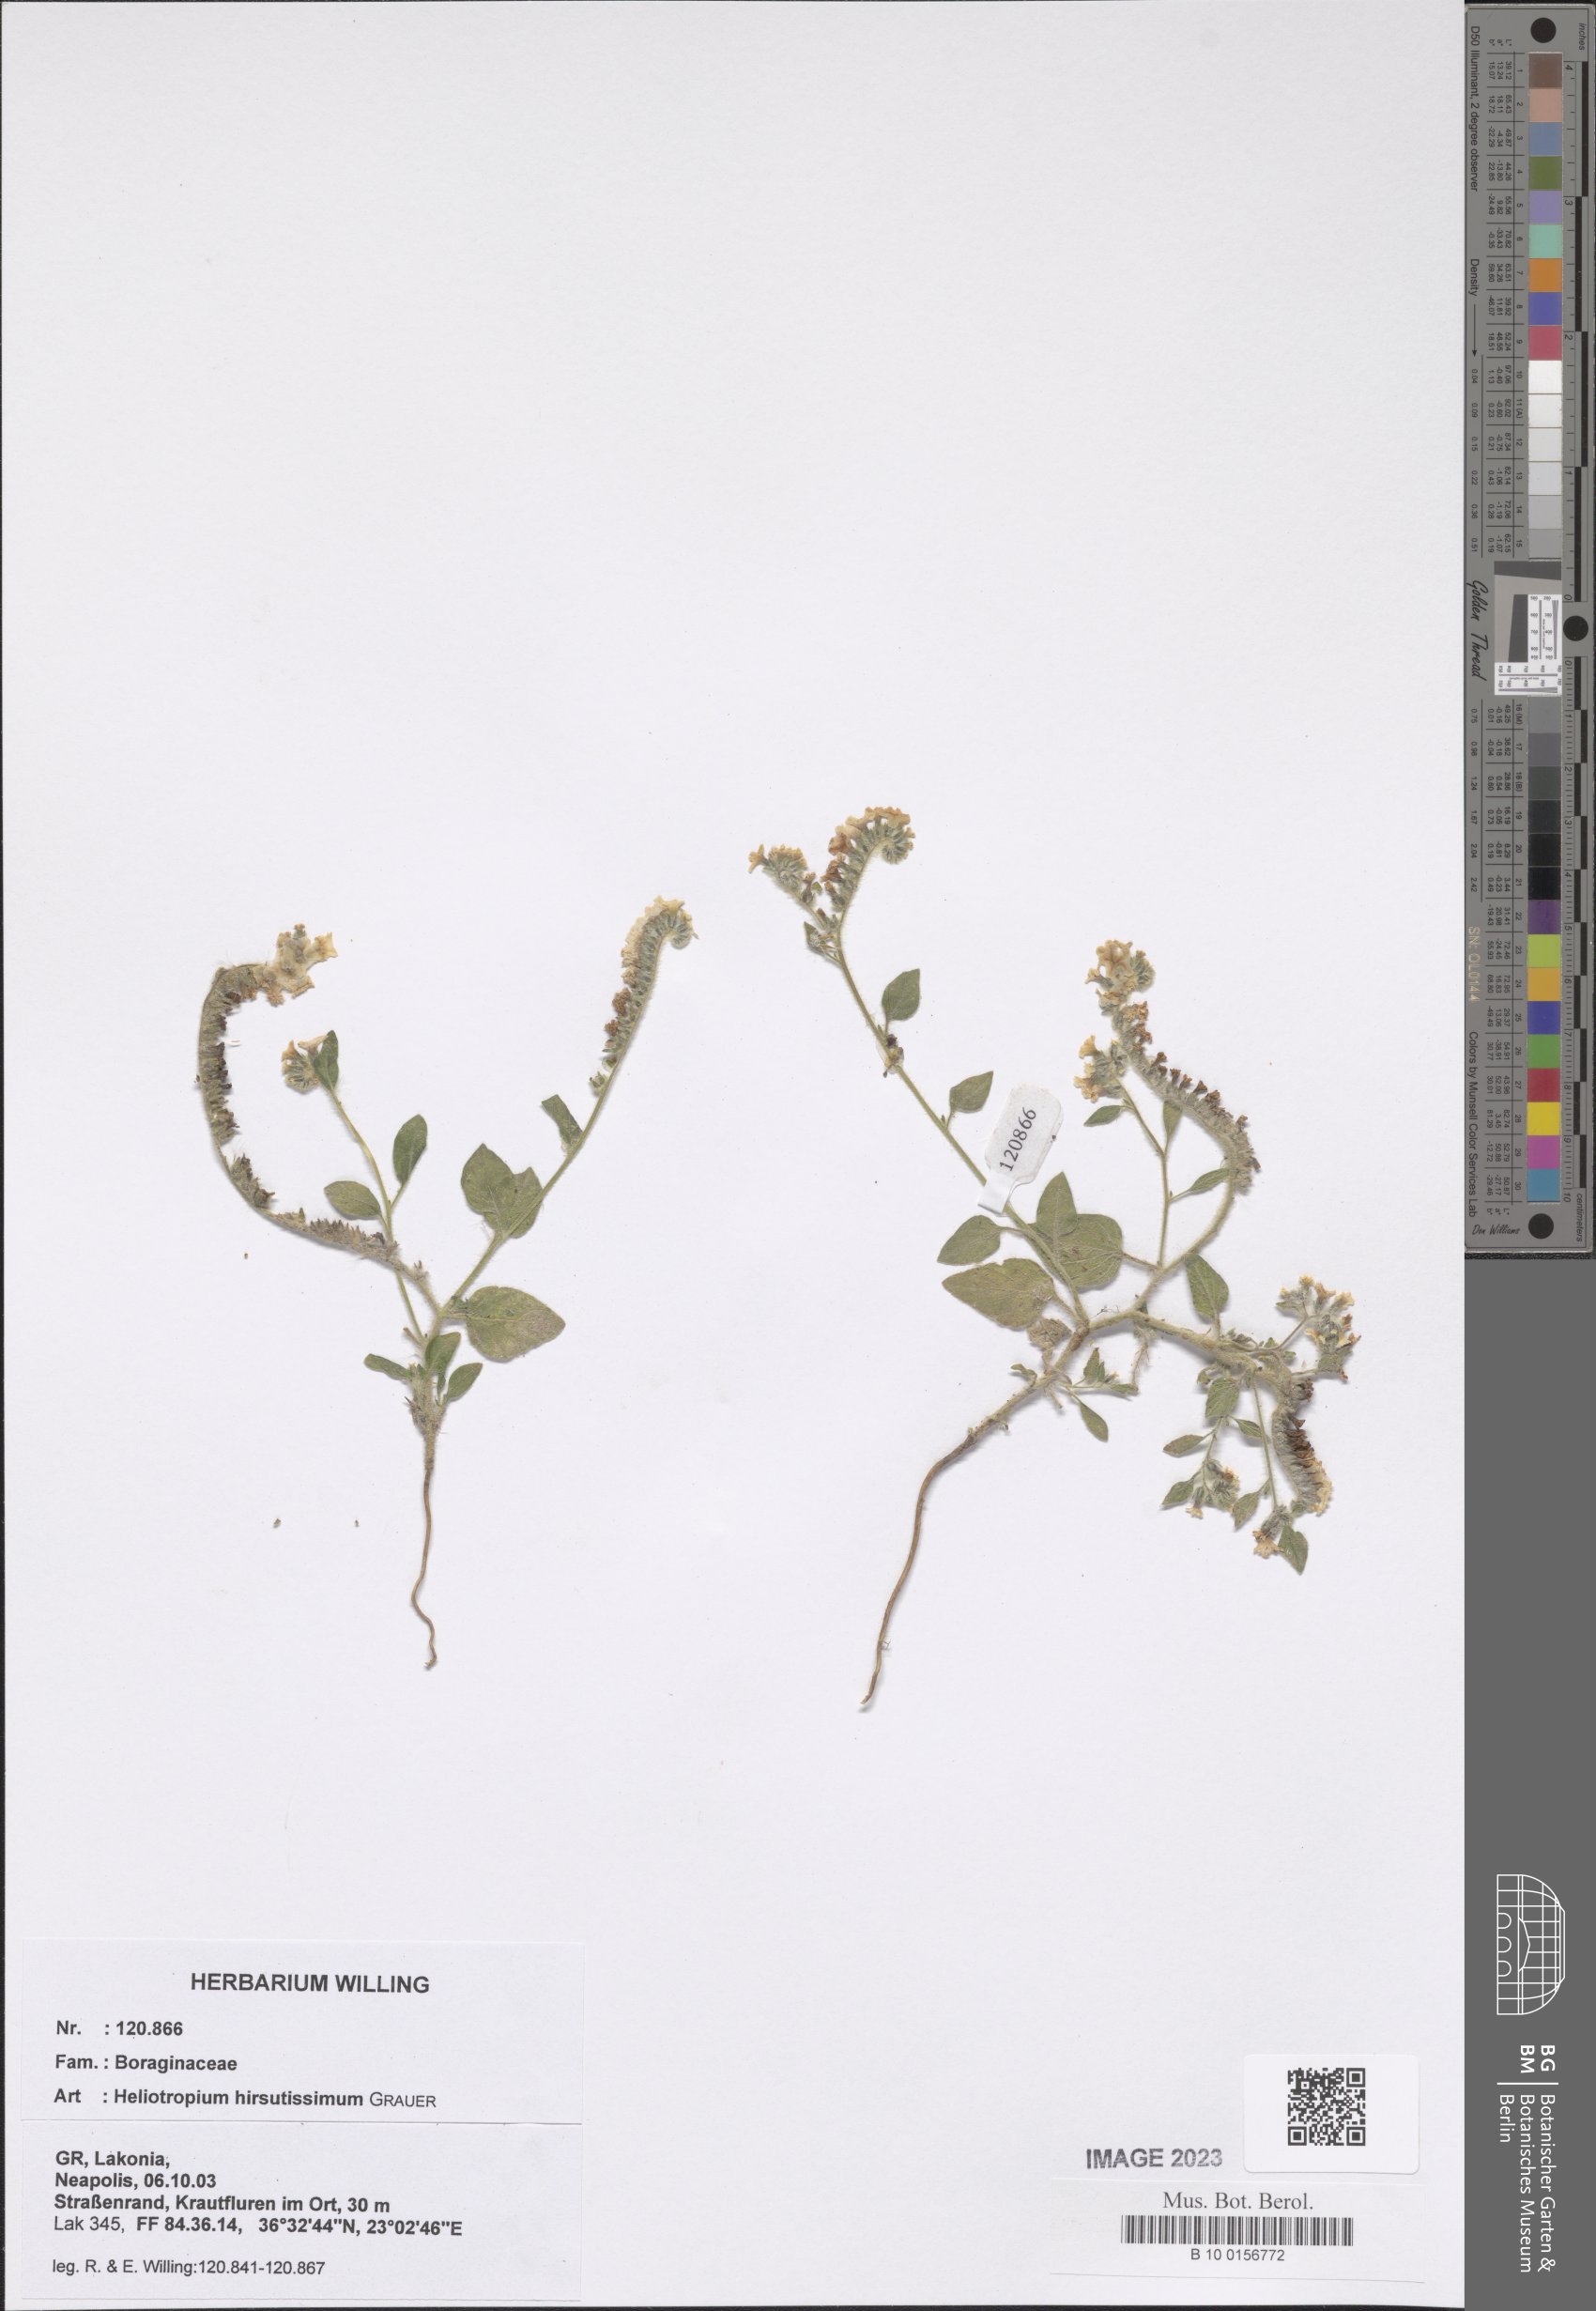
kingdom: Plantae
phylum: Tracheophyta
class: Magnoliopsida
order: Boraginales
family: Heliotropiaceae
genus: Heliotropium
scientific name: Heliotropium hirsutissimum
